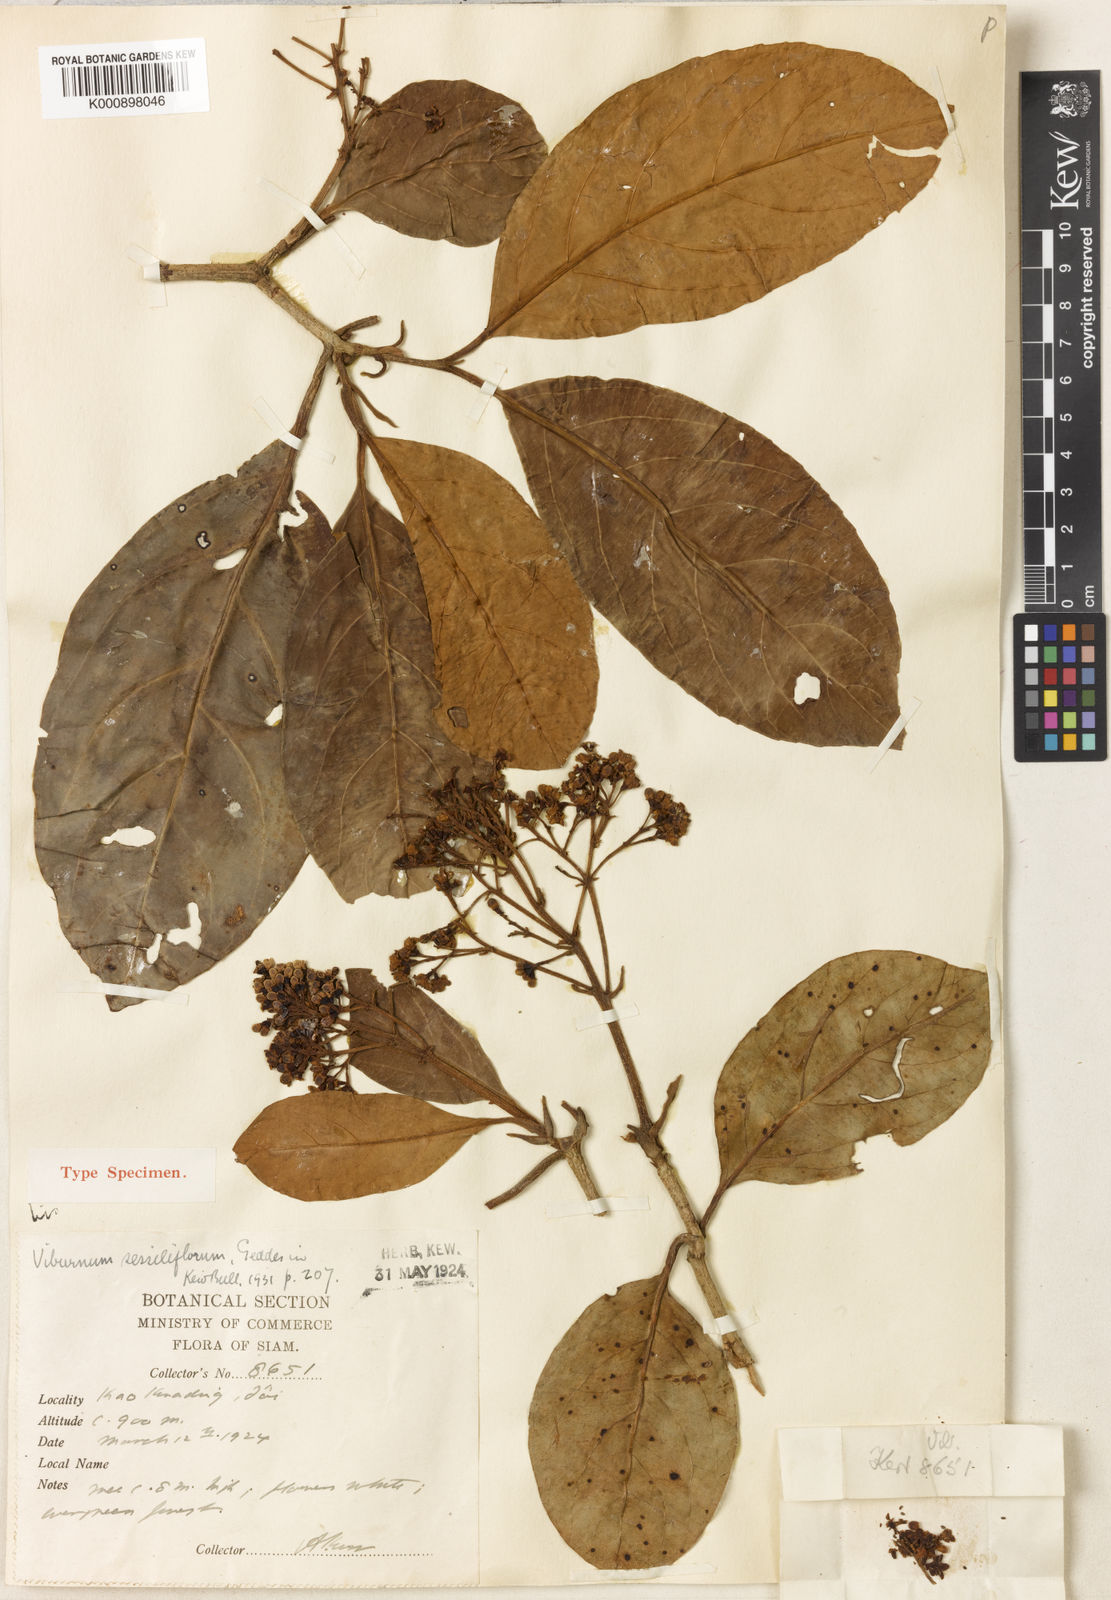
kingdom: Plantae
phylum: Tracheophyta
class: Magnoliopsida
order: Dipsacales
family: Viburnaceae
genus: Viburnum
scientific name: Viburnum odoratissimum
